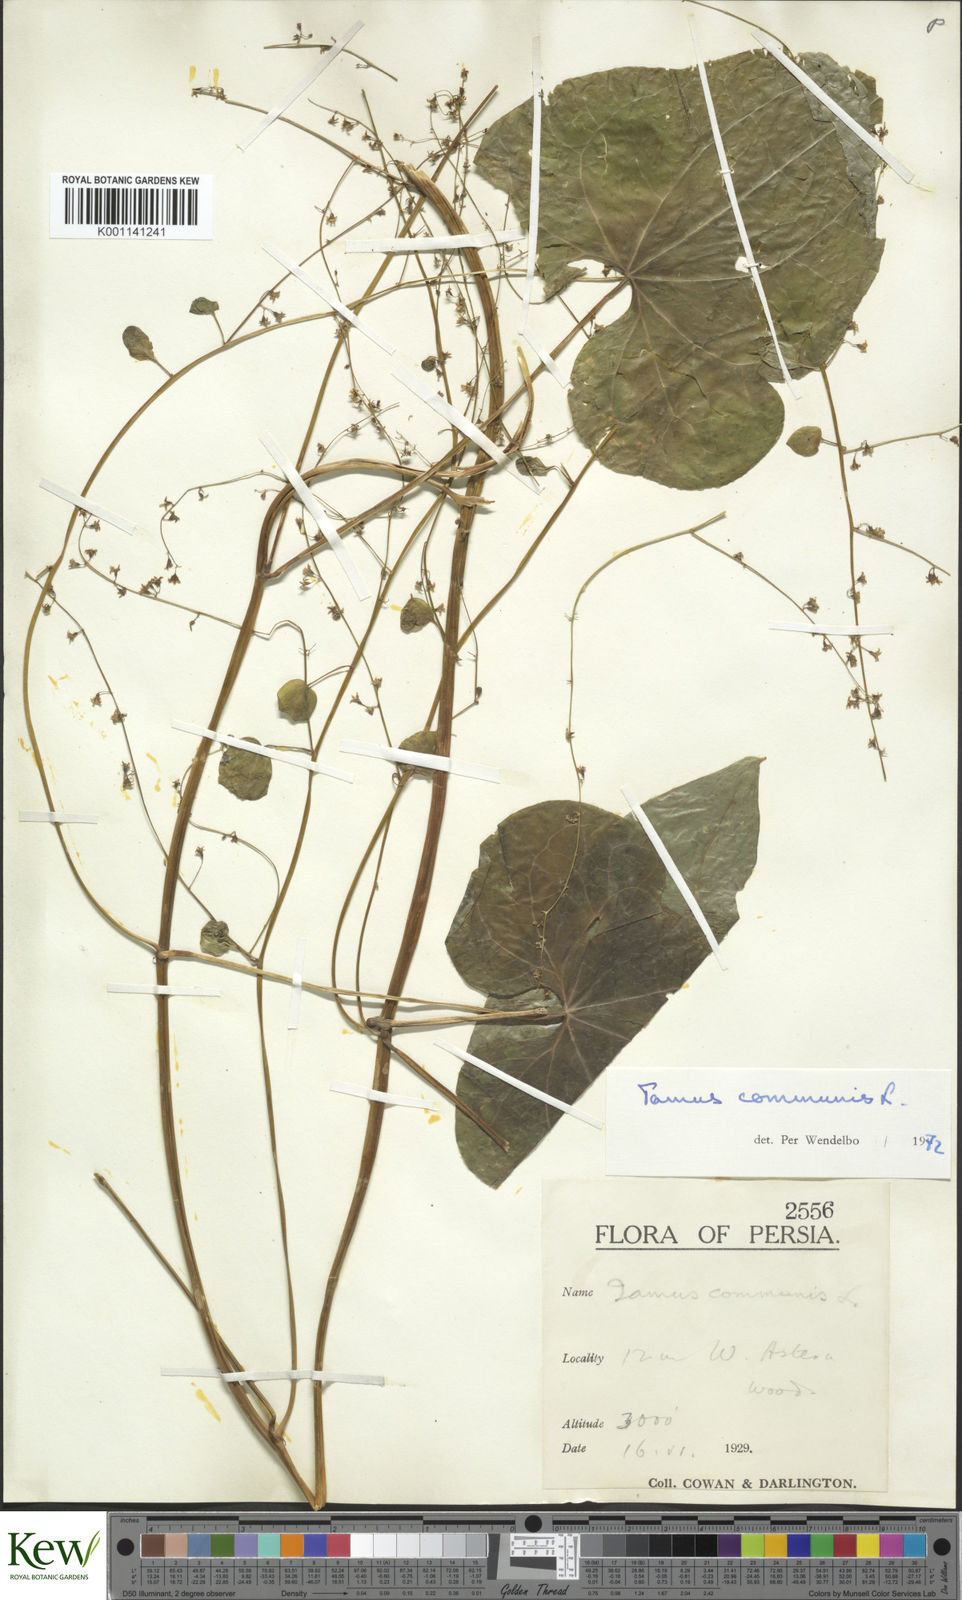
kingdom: Plantae
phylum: Tracheophyta
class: Liliopsida
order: Dioscoreales
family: Dioscoreaceae
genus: Dioscorea
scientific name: Dioscorea communis
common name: Black-bindweed
